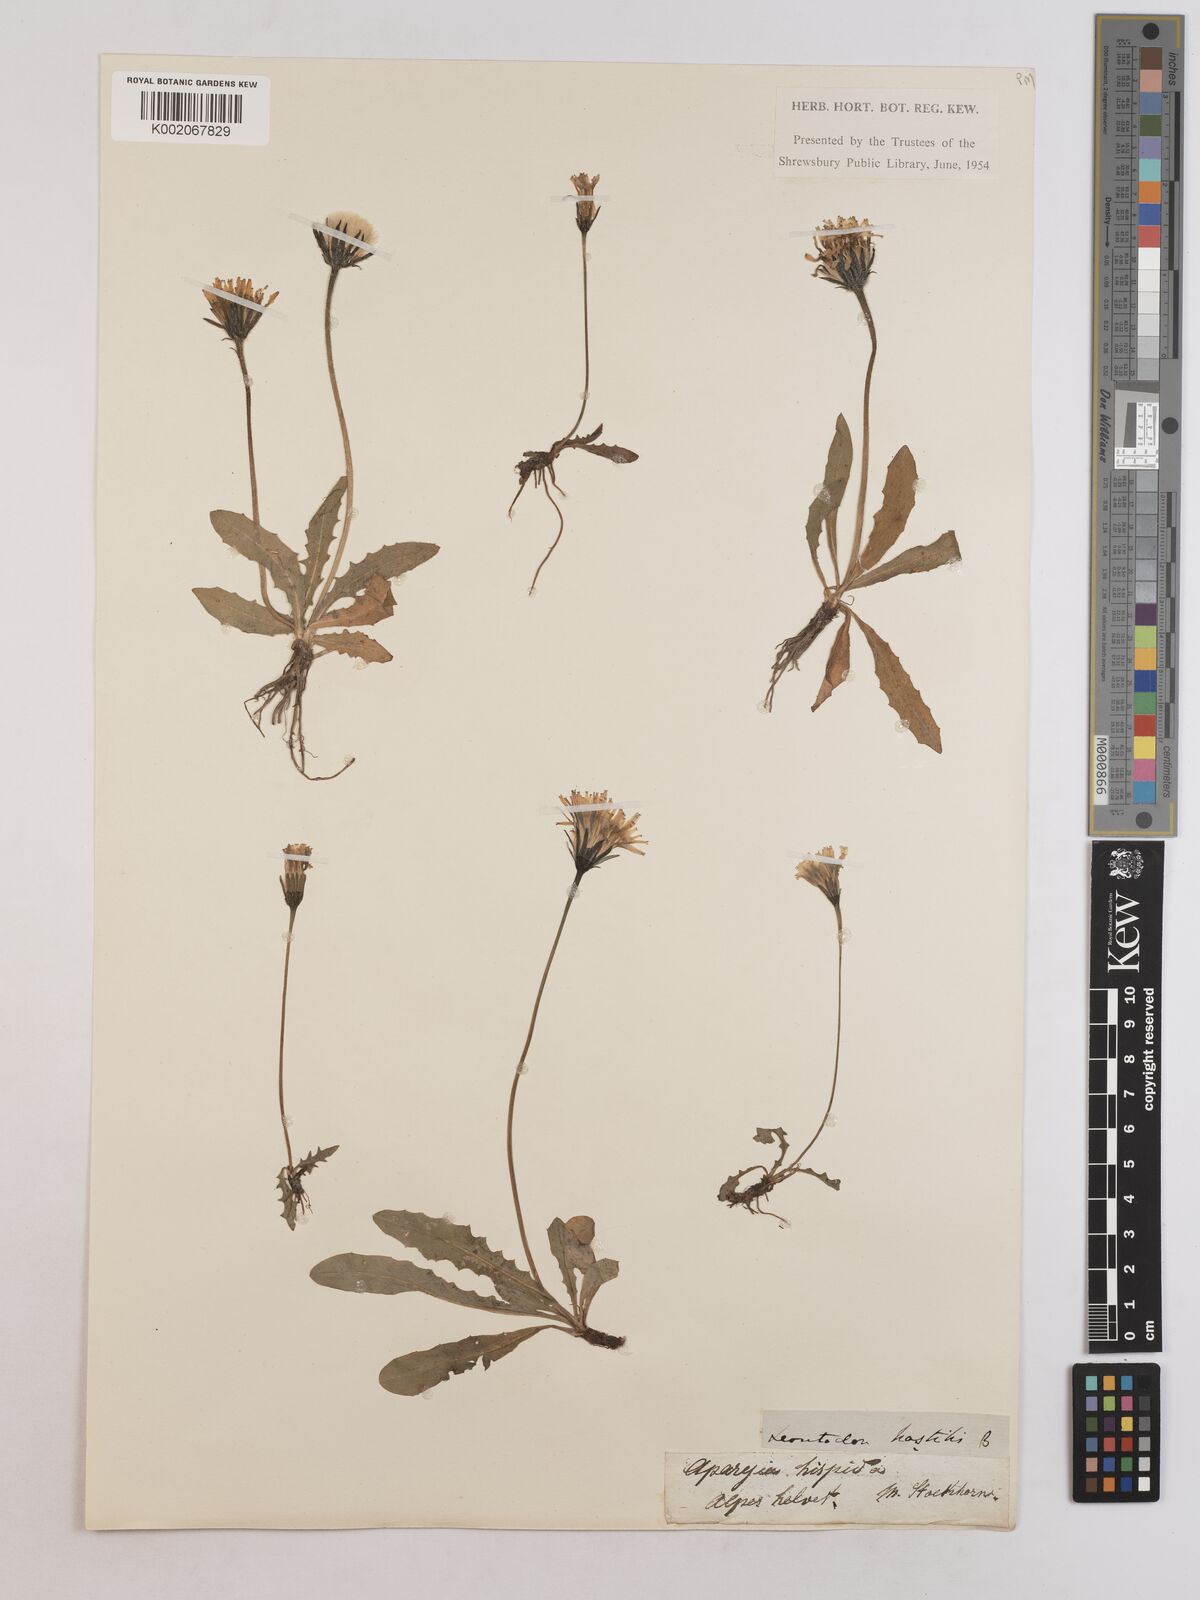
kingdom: Plantae
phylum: Tracheophyta
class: Magnoliopsida
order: Asterales
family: Asteraceae
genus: Leontodon
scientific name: Leontodon hispidus
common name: Rough hawkbit
